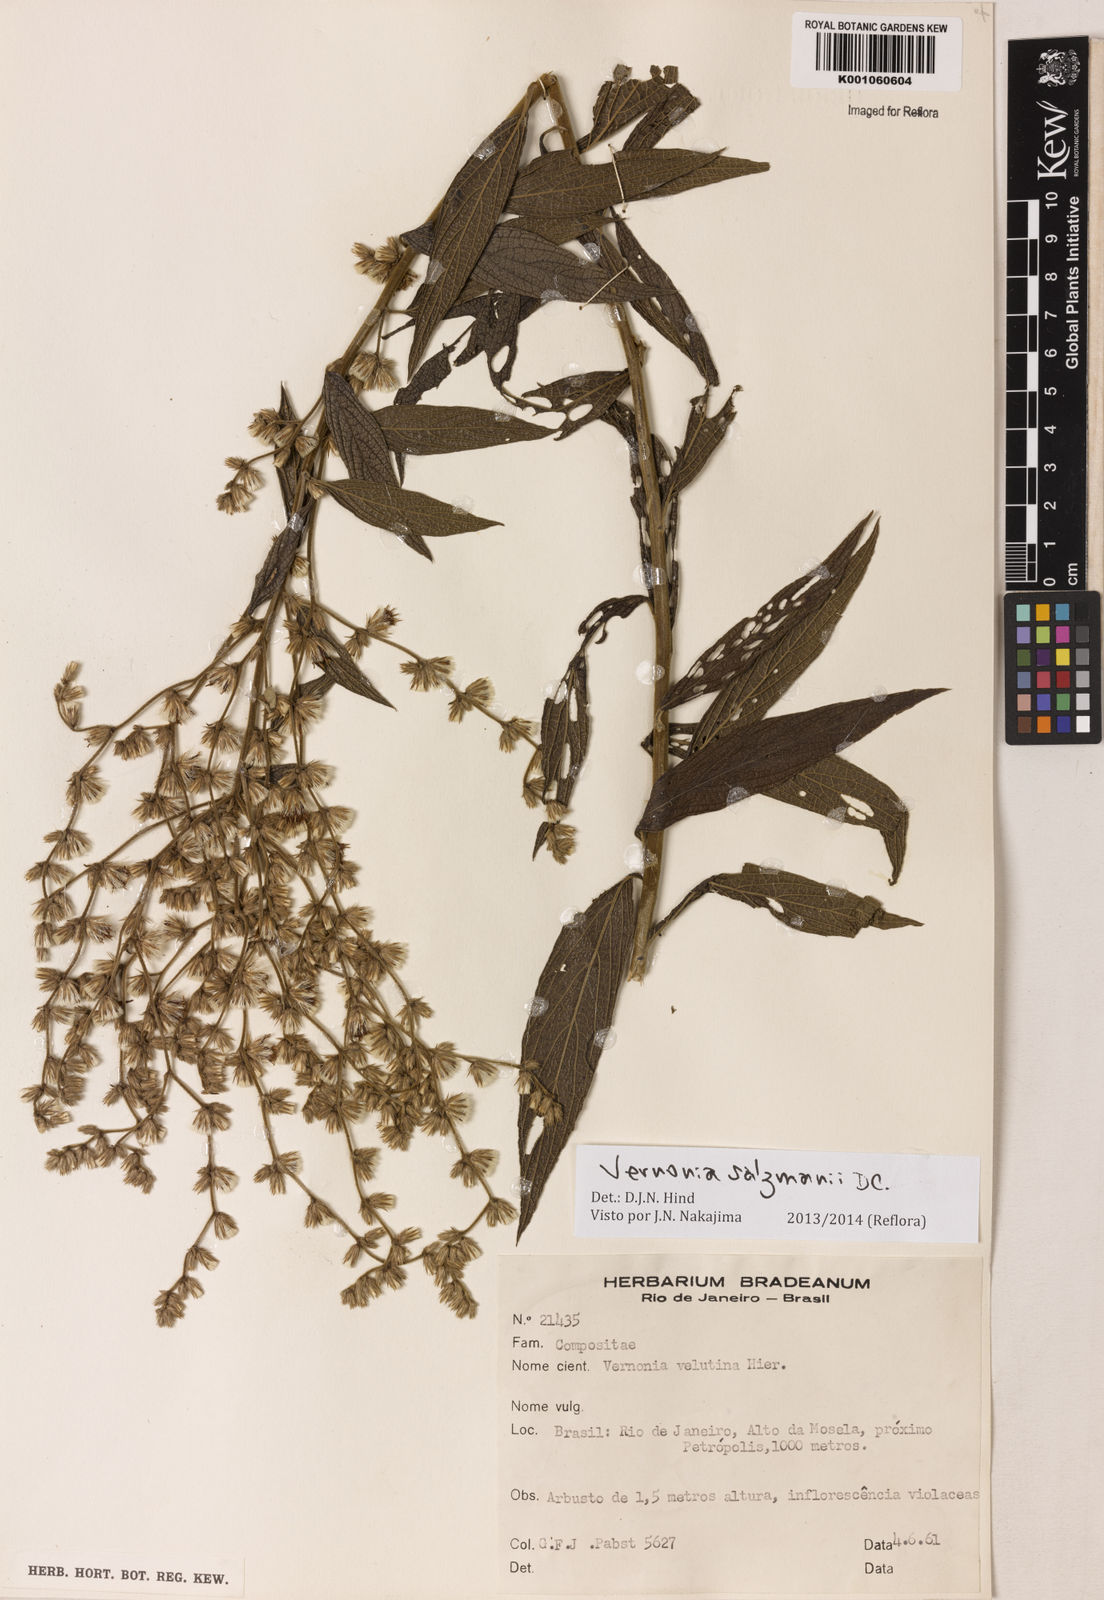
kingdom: Plantae
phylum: Tracheophyta
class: Magnoliopsida
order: Asterales
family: Asteraceae
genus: Lepidaploa
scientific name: Lepidaploa salzmannii
